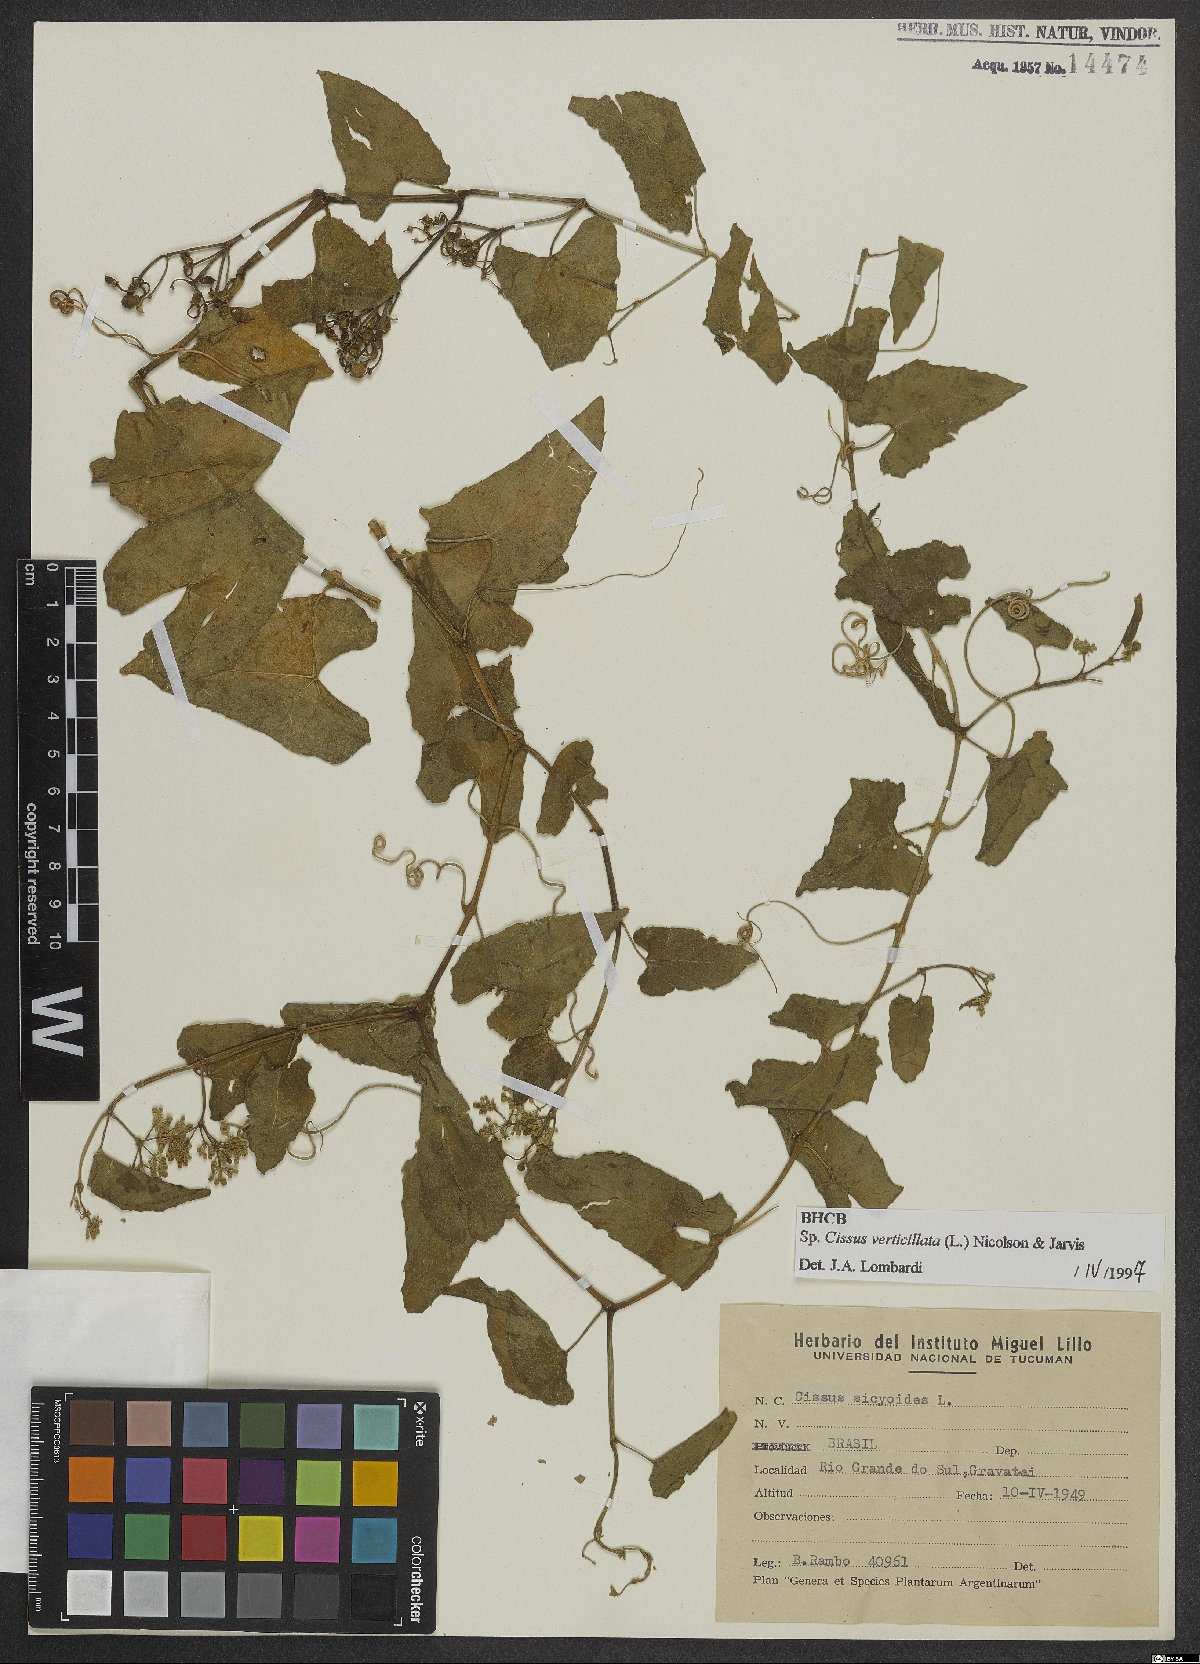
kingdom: Plantae
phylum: Tracheophyta
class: Magnoliopsida
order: Vitales
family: Vitaceae
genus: Cissus
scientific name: Cissus verticillata
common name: Princess vine
